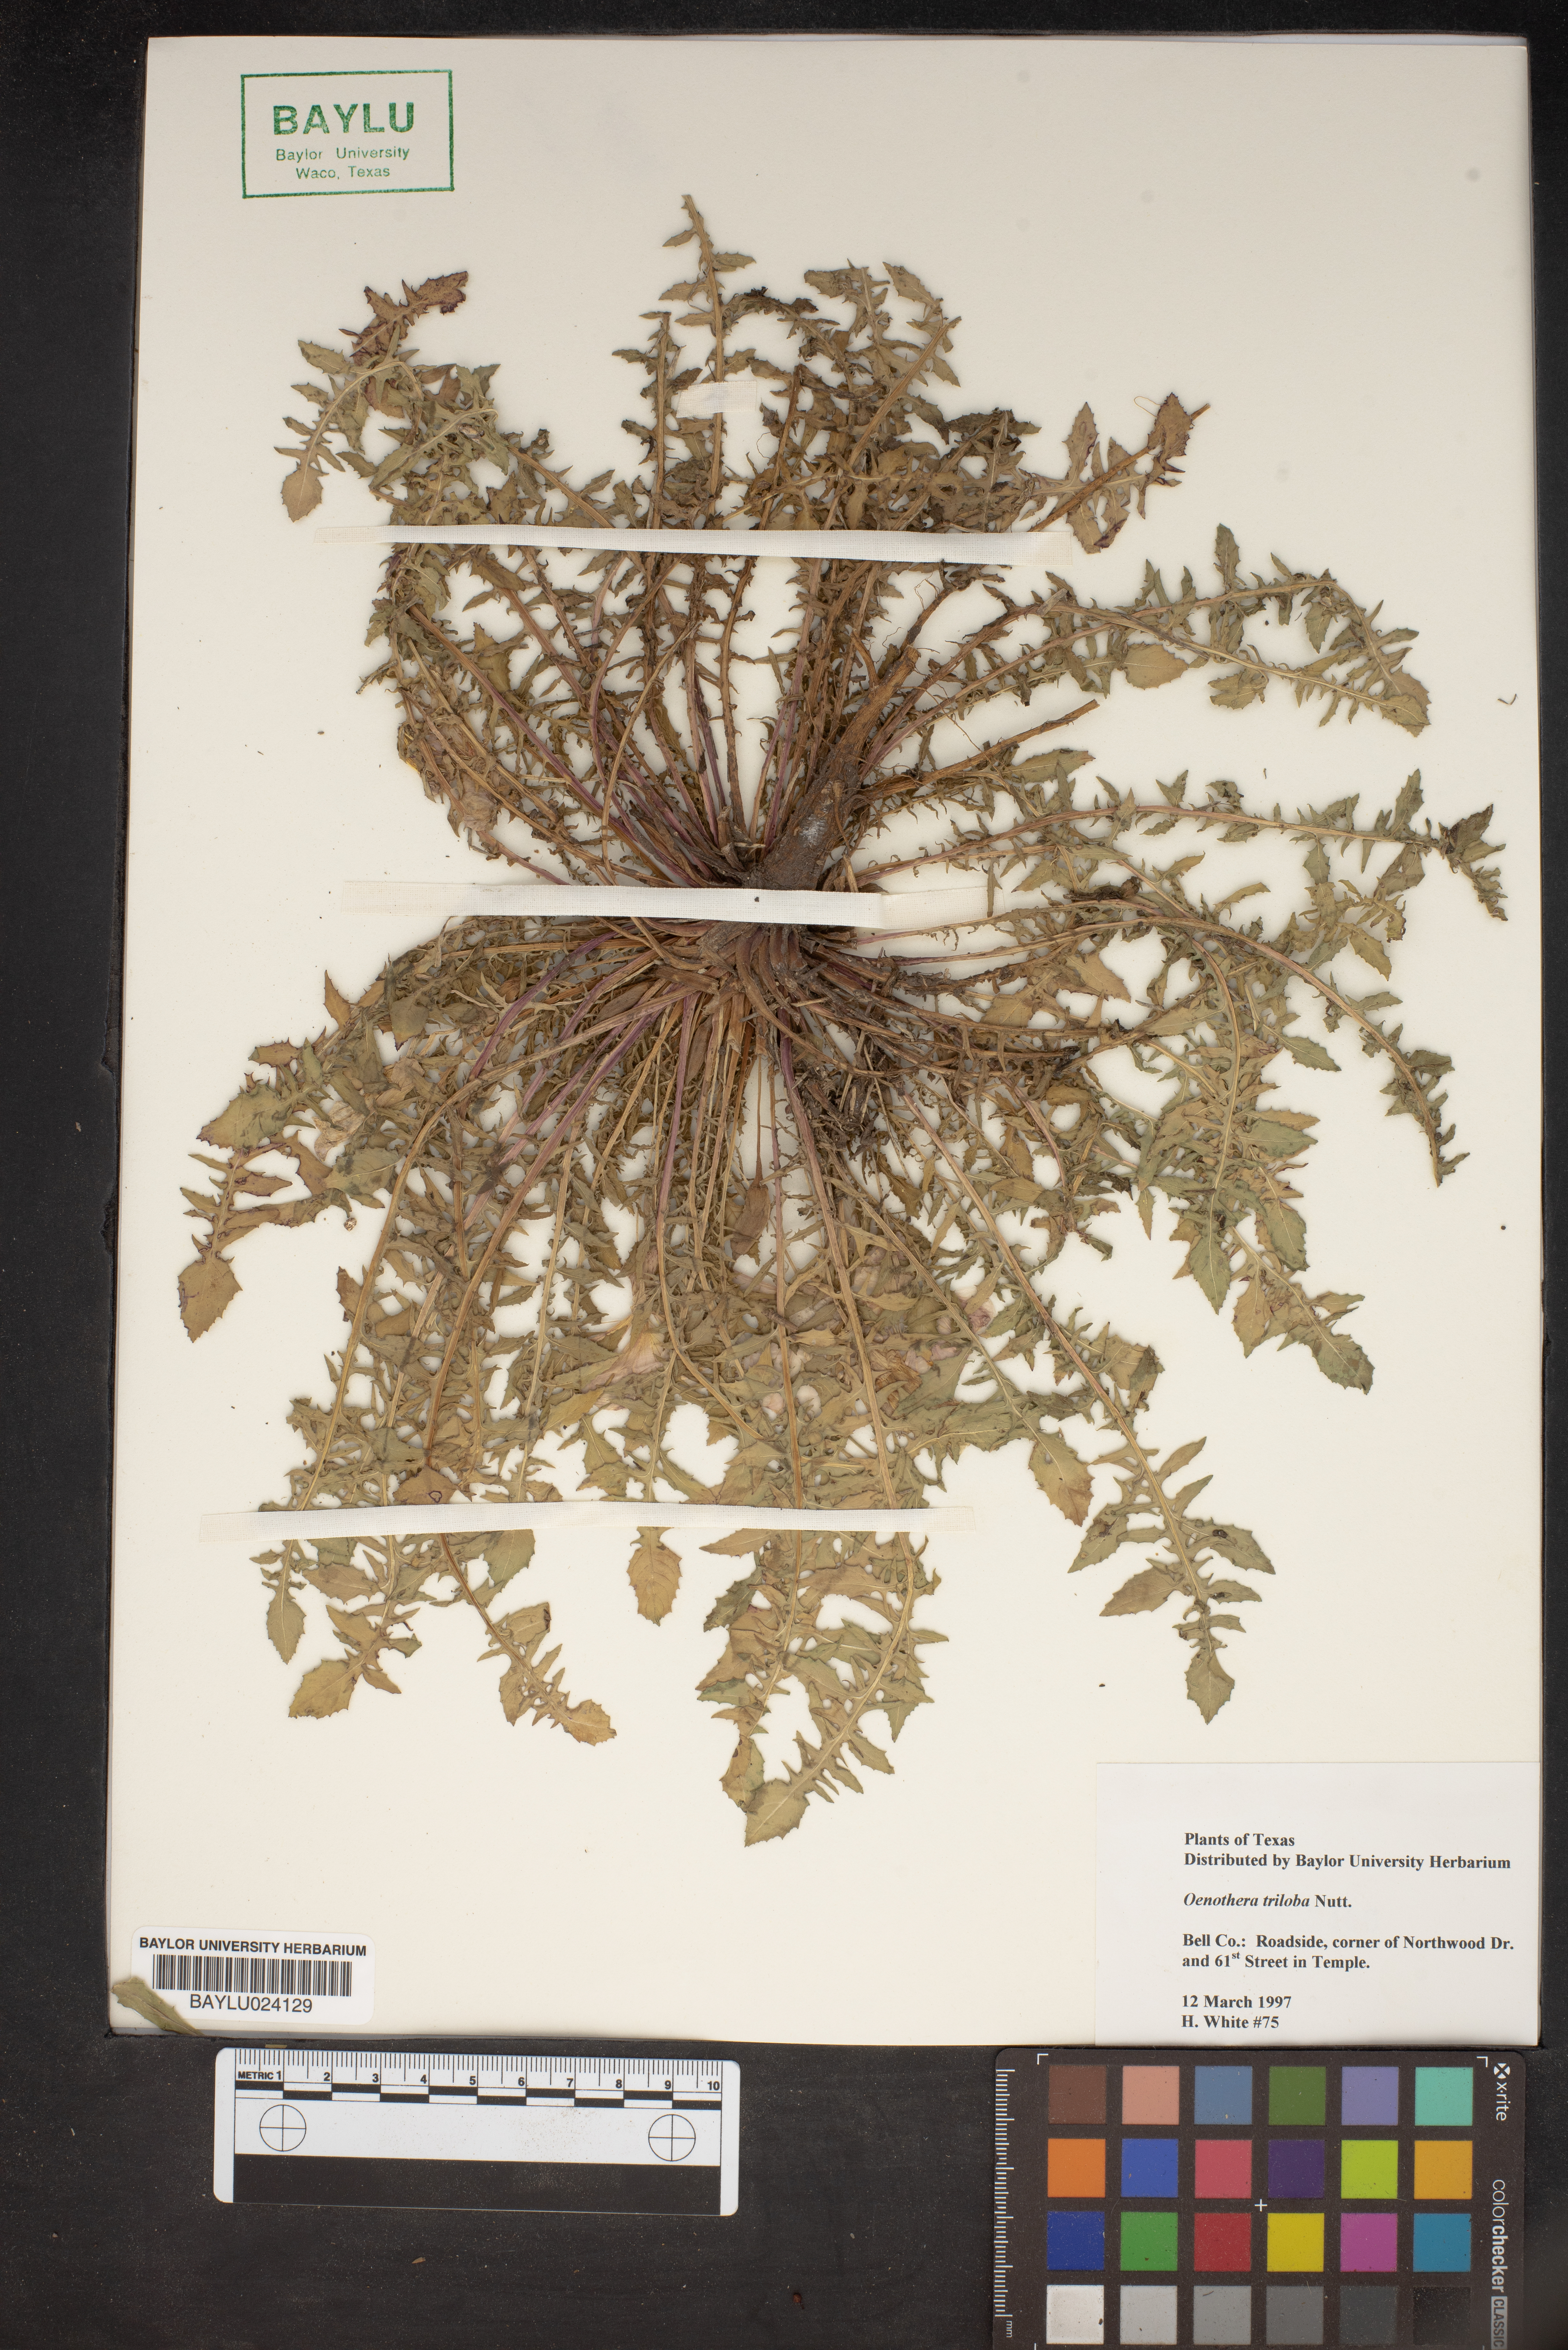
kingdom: Plantae
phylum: Tracheophyta
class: Magnoliopsida
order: Myrtales
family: Onagraceae
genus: Oenothera
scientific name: Oenothera triloba
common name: Sessile evening-primrose
